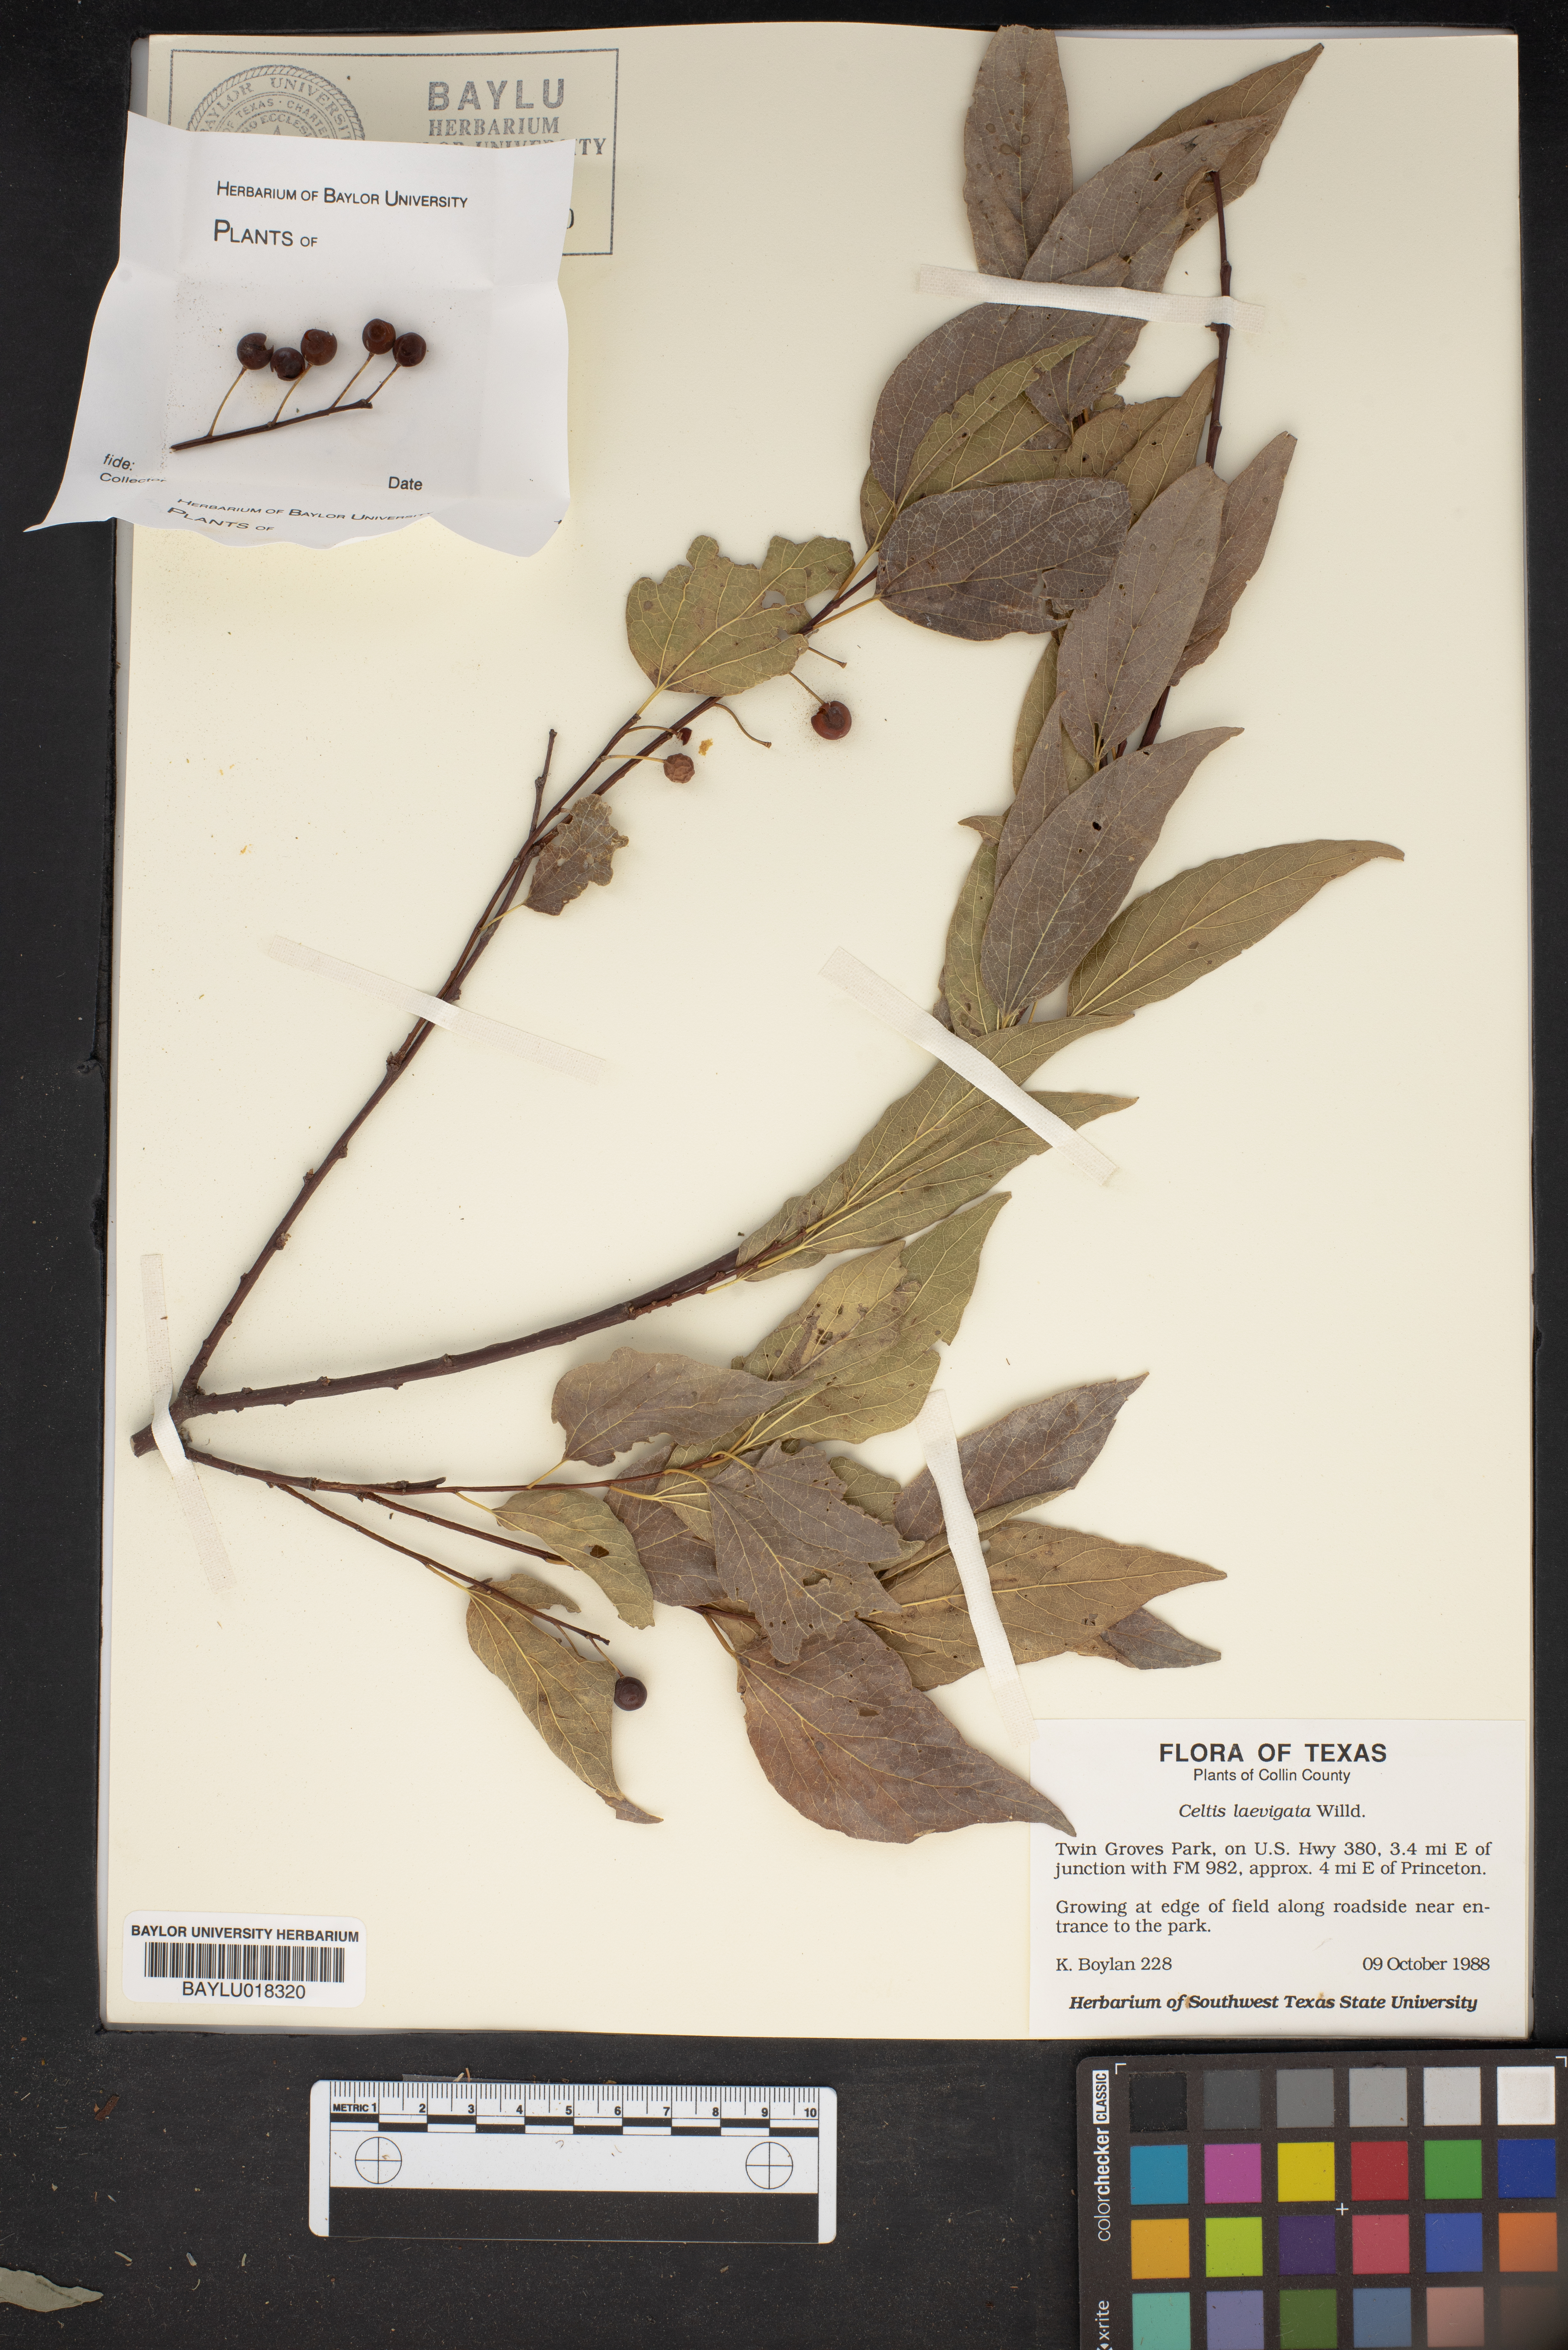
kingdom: Plantae
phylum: Tracheophyta
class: Magnoliopsida
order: Rosales
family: Cannabaceae
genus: Celtis
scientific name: Celtis laevigata
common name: Sugarberry
